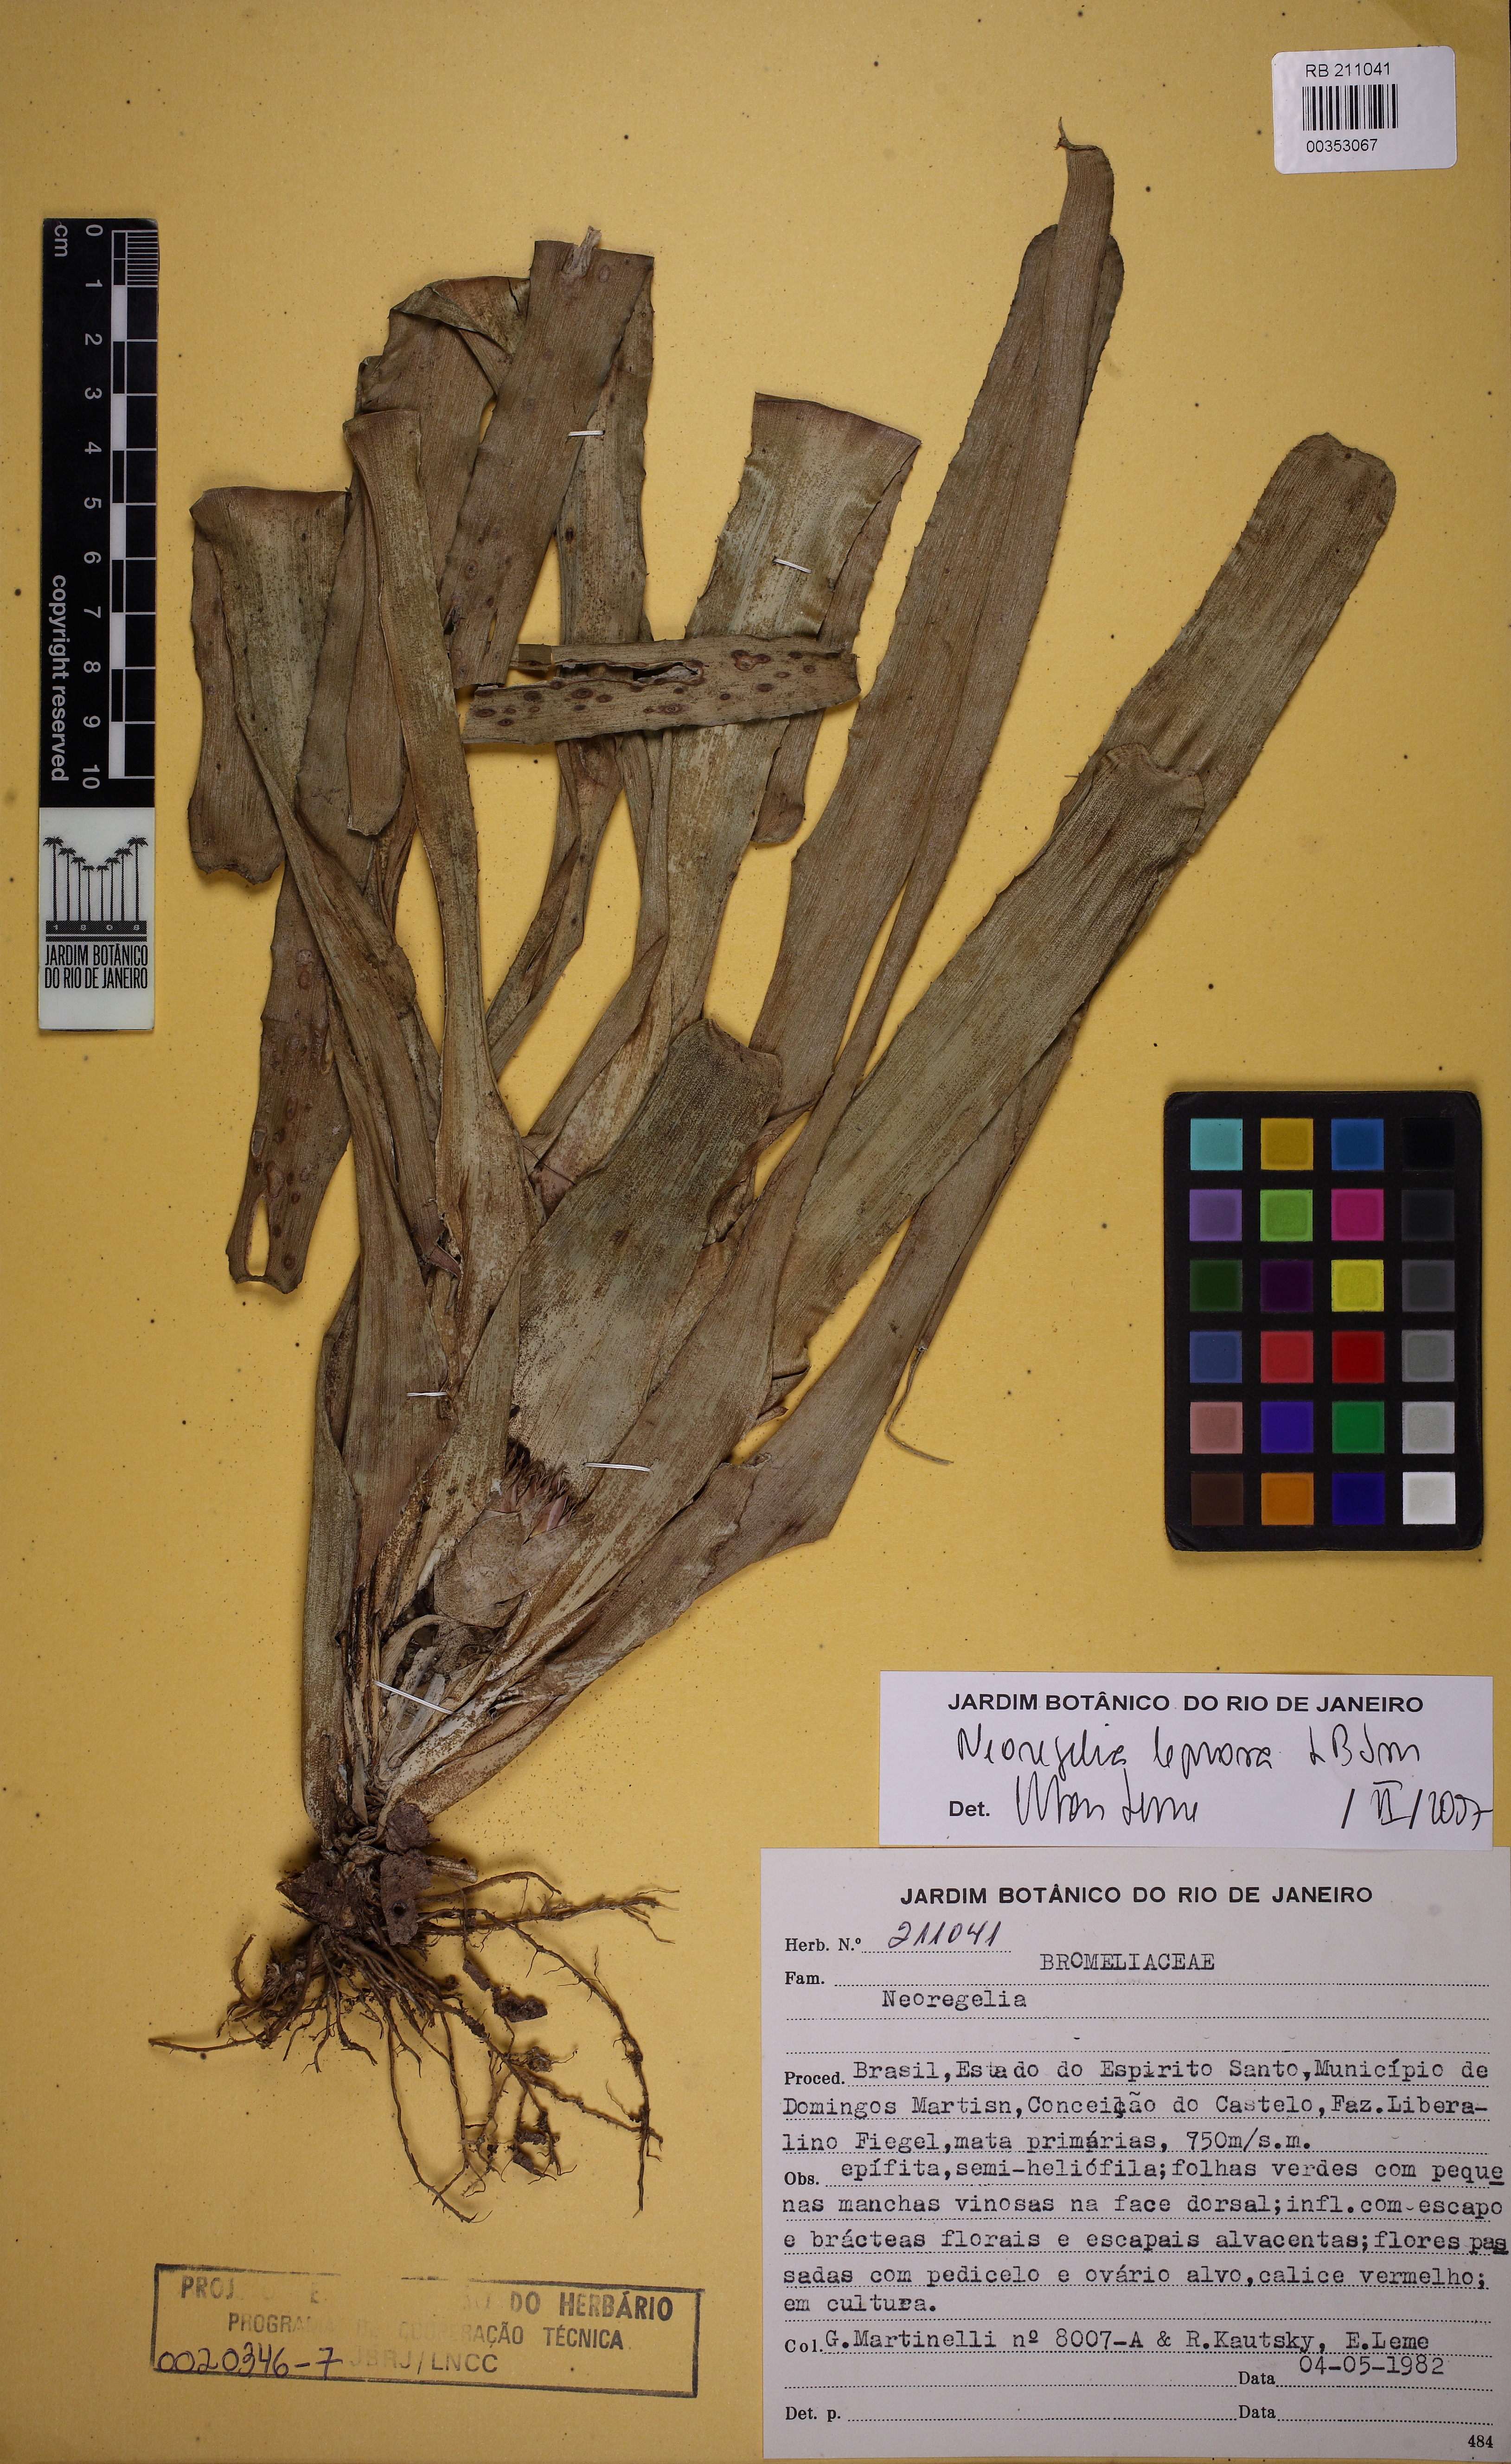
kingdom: Plantae
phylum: Tracheophyta
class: Liliopsida
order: Poales
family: Bromeliaceae
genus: Neoregelia
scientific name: Neoregelia leprosa
